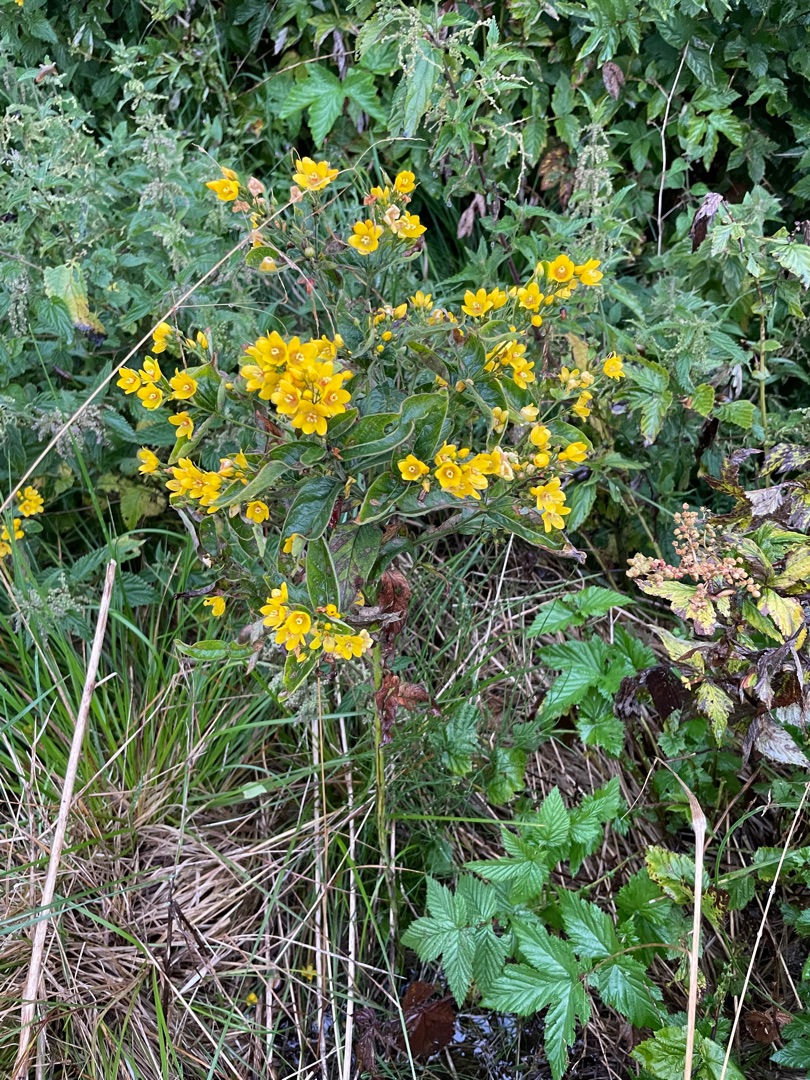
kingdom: Plantae
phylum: Tracheophyta
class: Magnoliopsida
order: Ericales
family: Primulaceae
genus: Lysimachia
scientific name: Lysimachia vulgaris
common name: Almindelig fredløs
